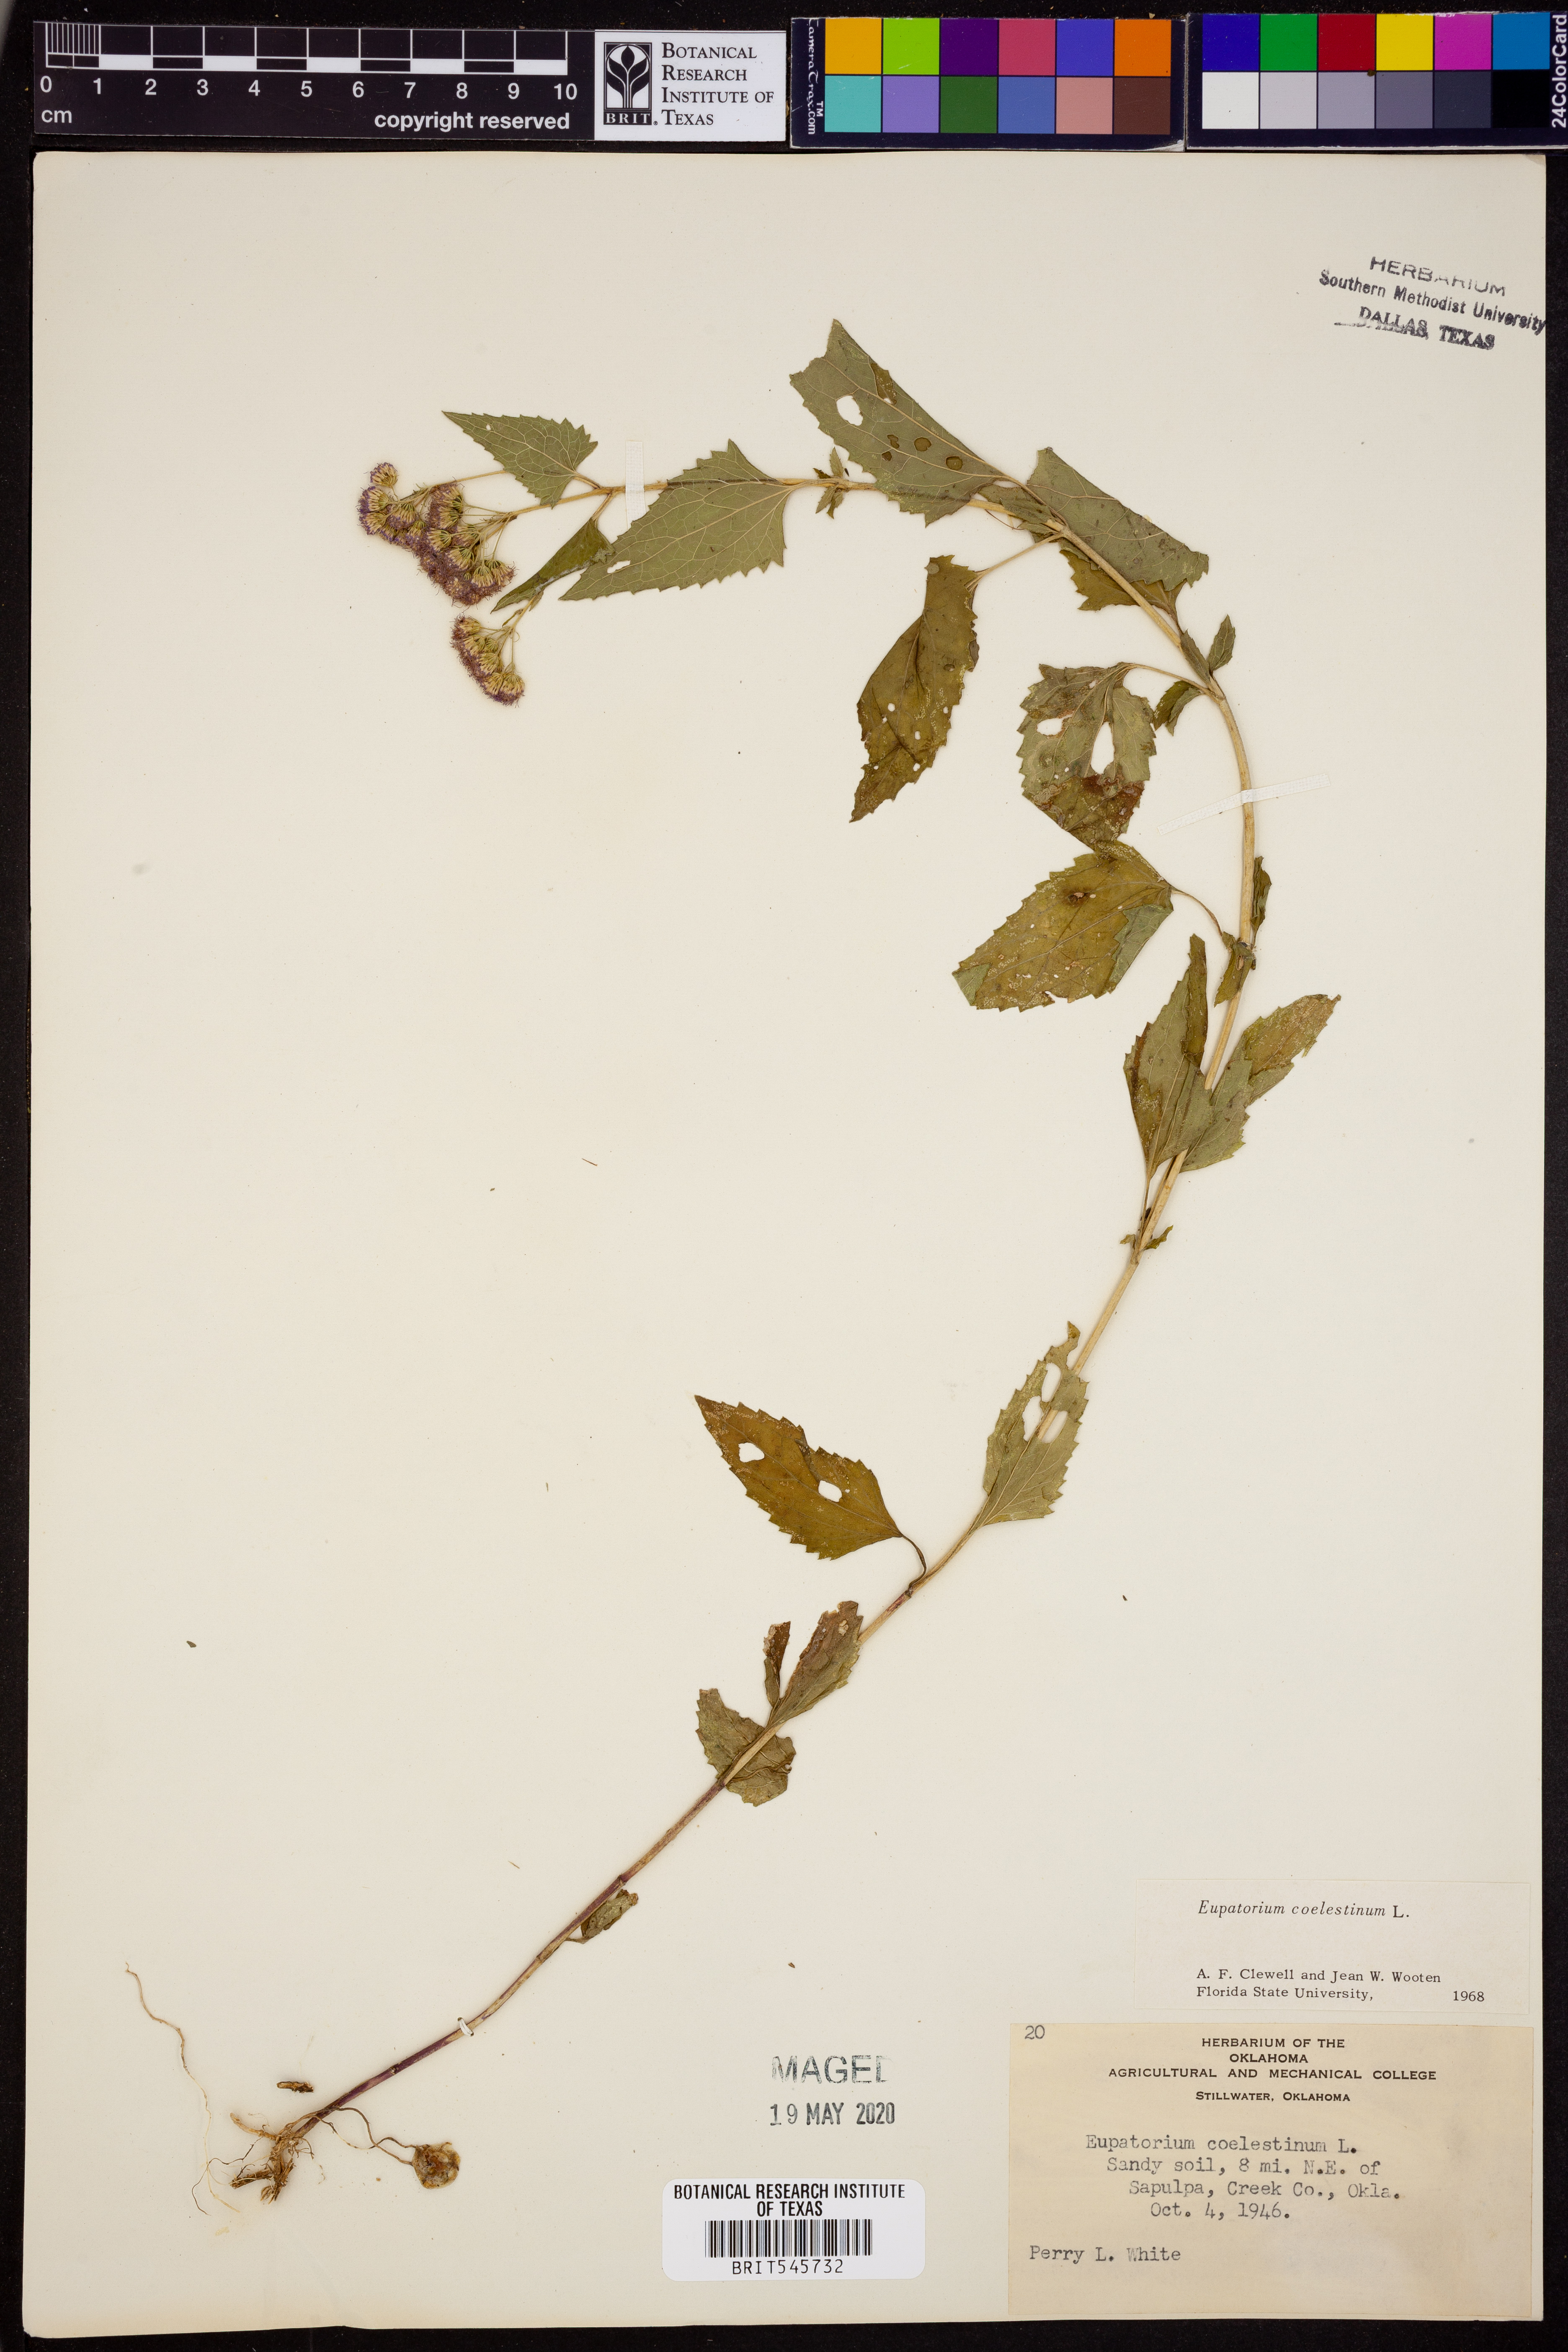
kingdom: Plantae
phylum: Tracheophyta
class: Magnoliopsida
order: Asterales
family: Asteraceae
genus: Conoclinium
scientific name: Conoclinium coelestinum
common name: Blue mistflower
